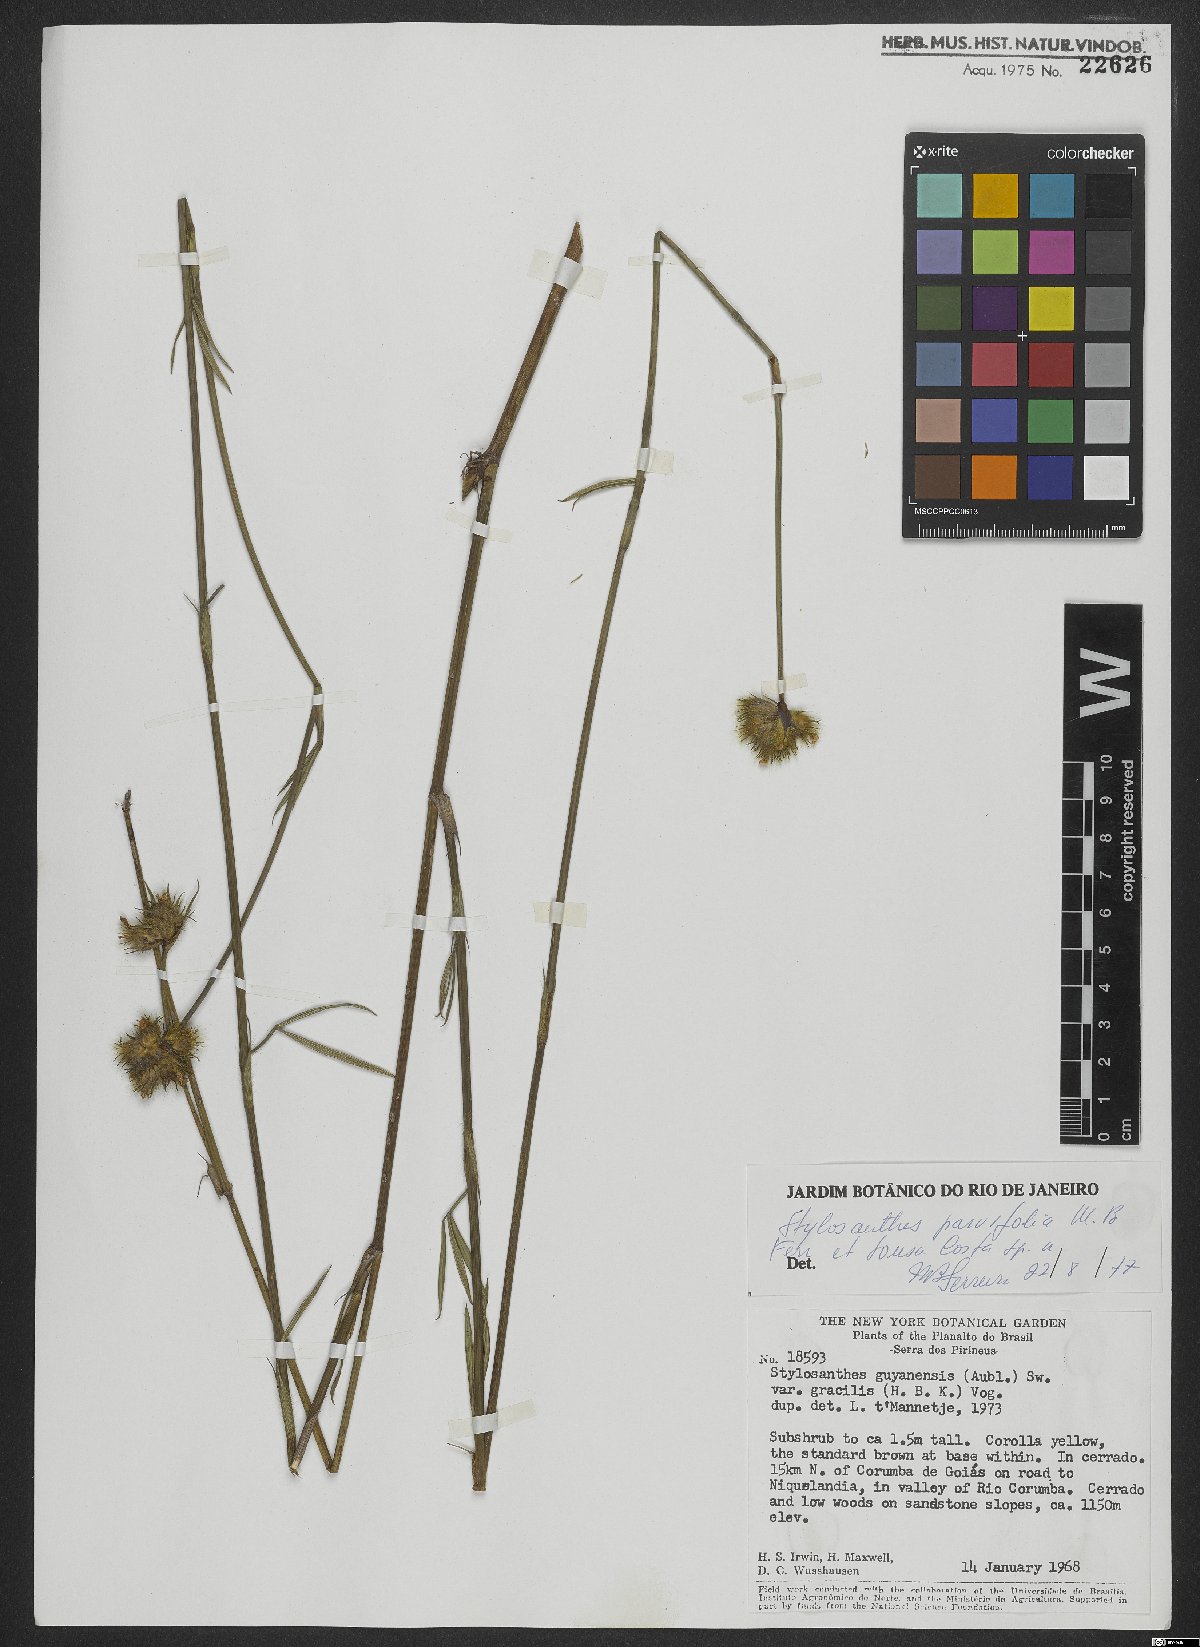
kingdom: Plantae
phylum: Tracheophyta
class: Magnoliopsida
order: Fabales
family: Fabaceae
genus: Stylosanthes
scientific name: Stylosanthes
